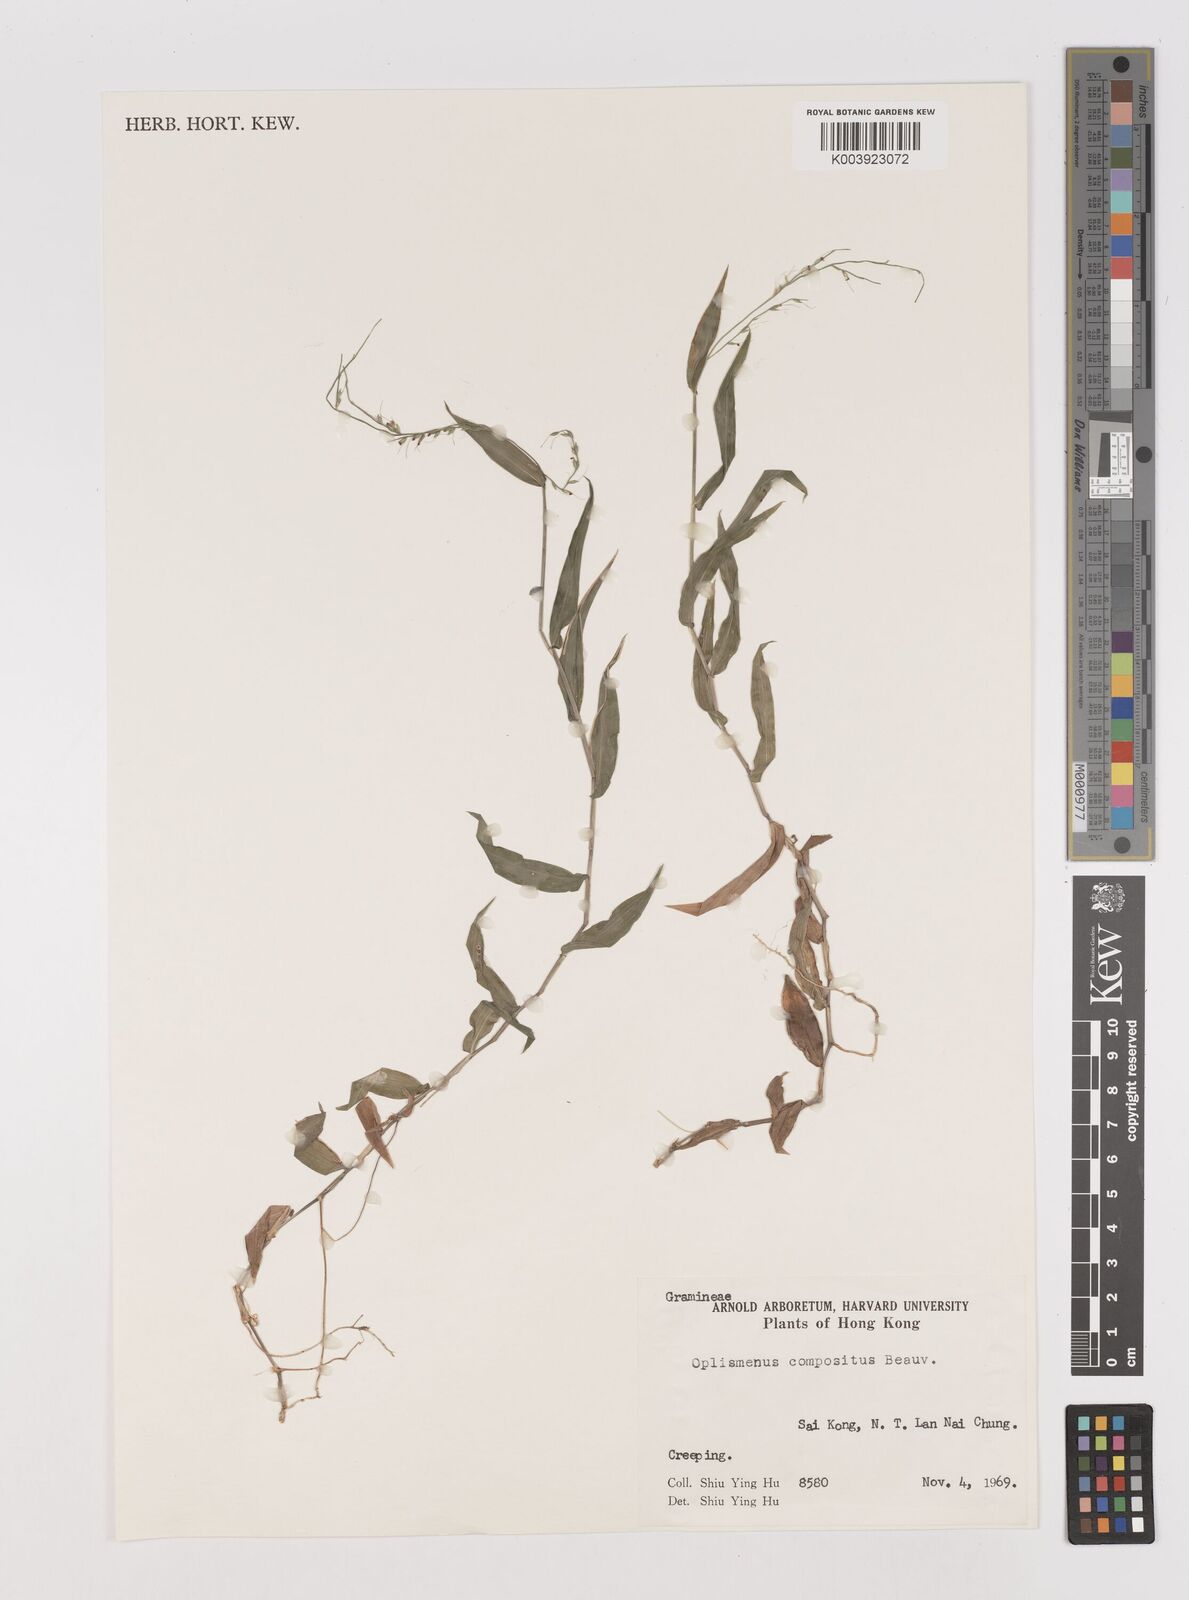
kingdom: Plantae
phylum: Tracheophyta
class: Liliopsida
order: Poales
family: Poaceae
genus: Oplismenus
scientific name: Oplismenus compositus
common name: Running mountain grass
